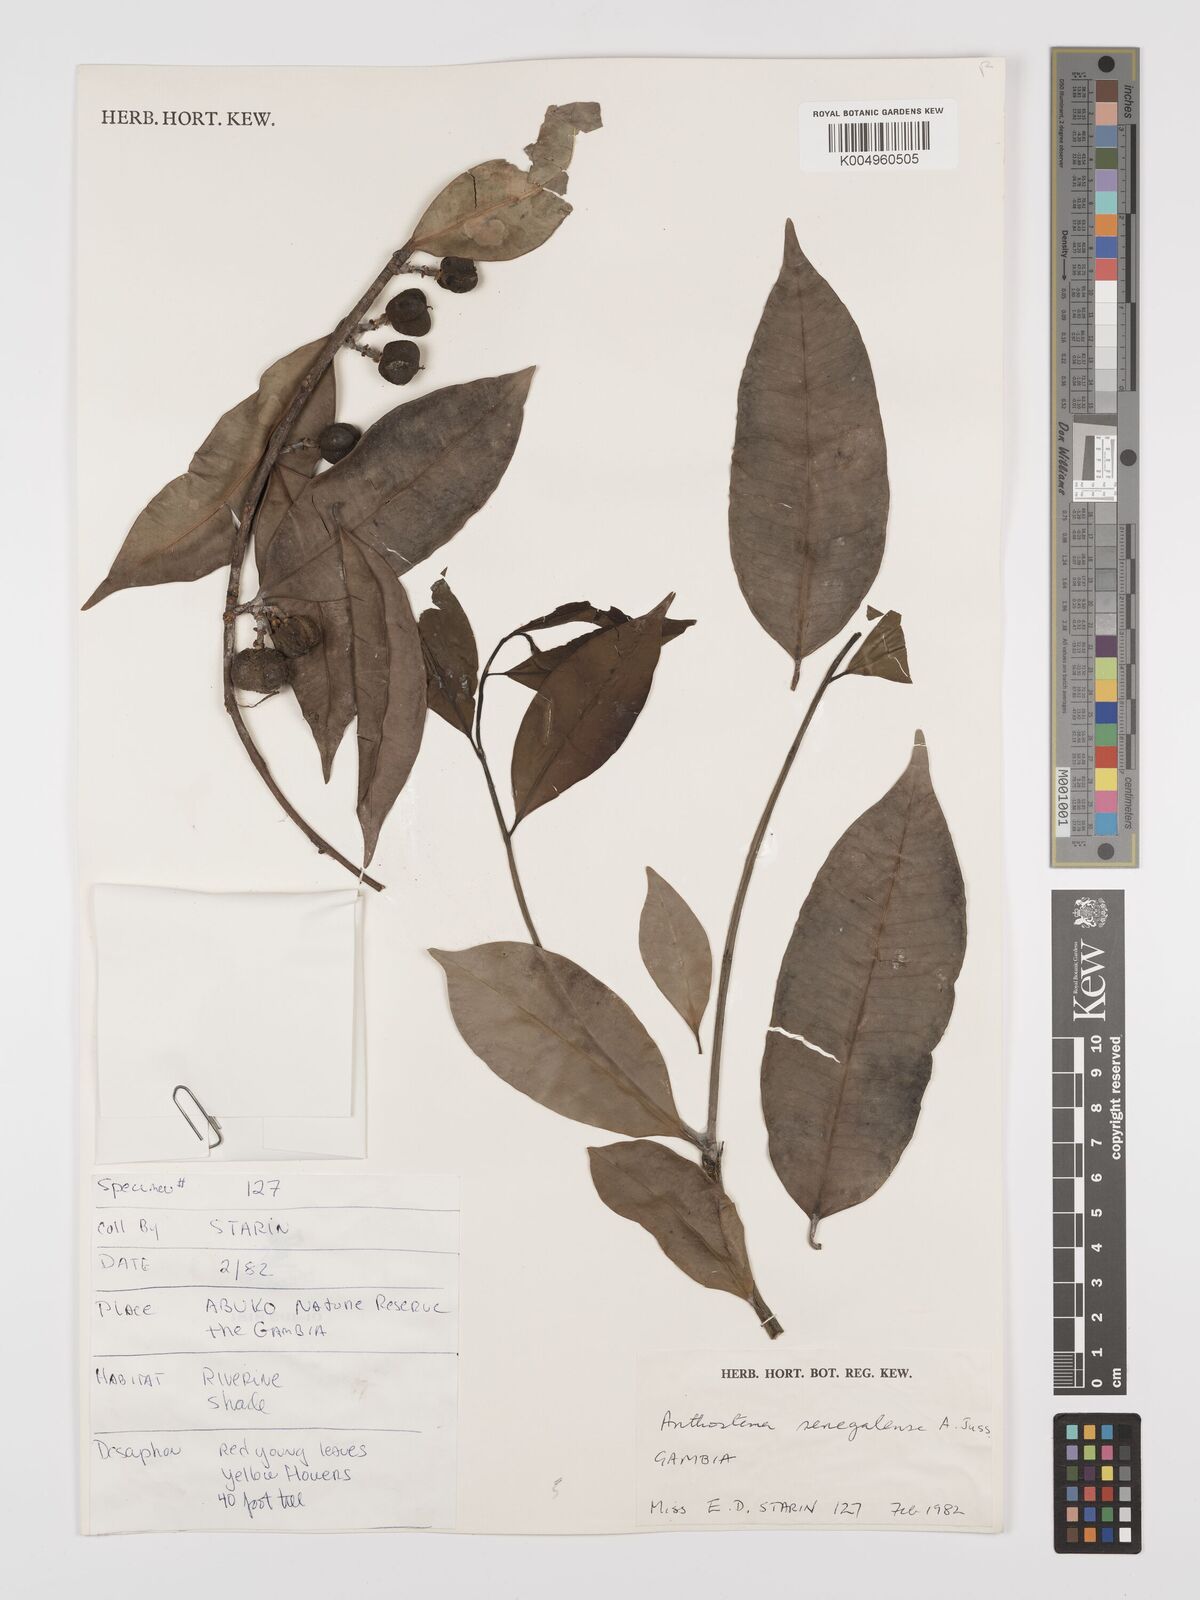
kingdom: Plantae
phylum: Tracheophyta
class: Magnoliopsida
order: Malpighiales
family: Euphorbiaceae
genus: Anthostema
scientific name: Anthostema senegalense
